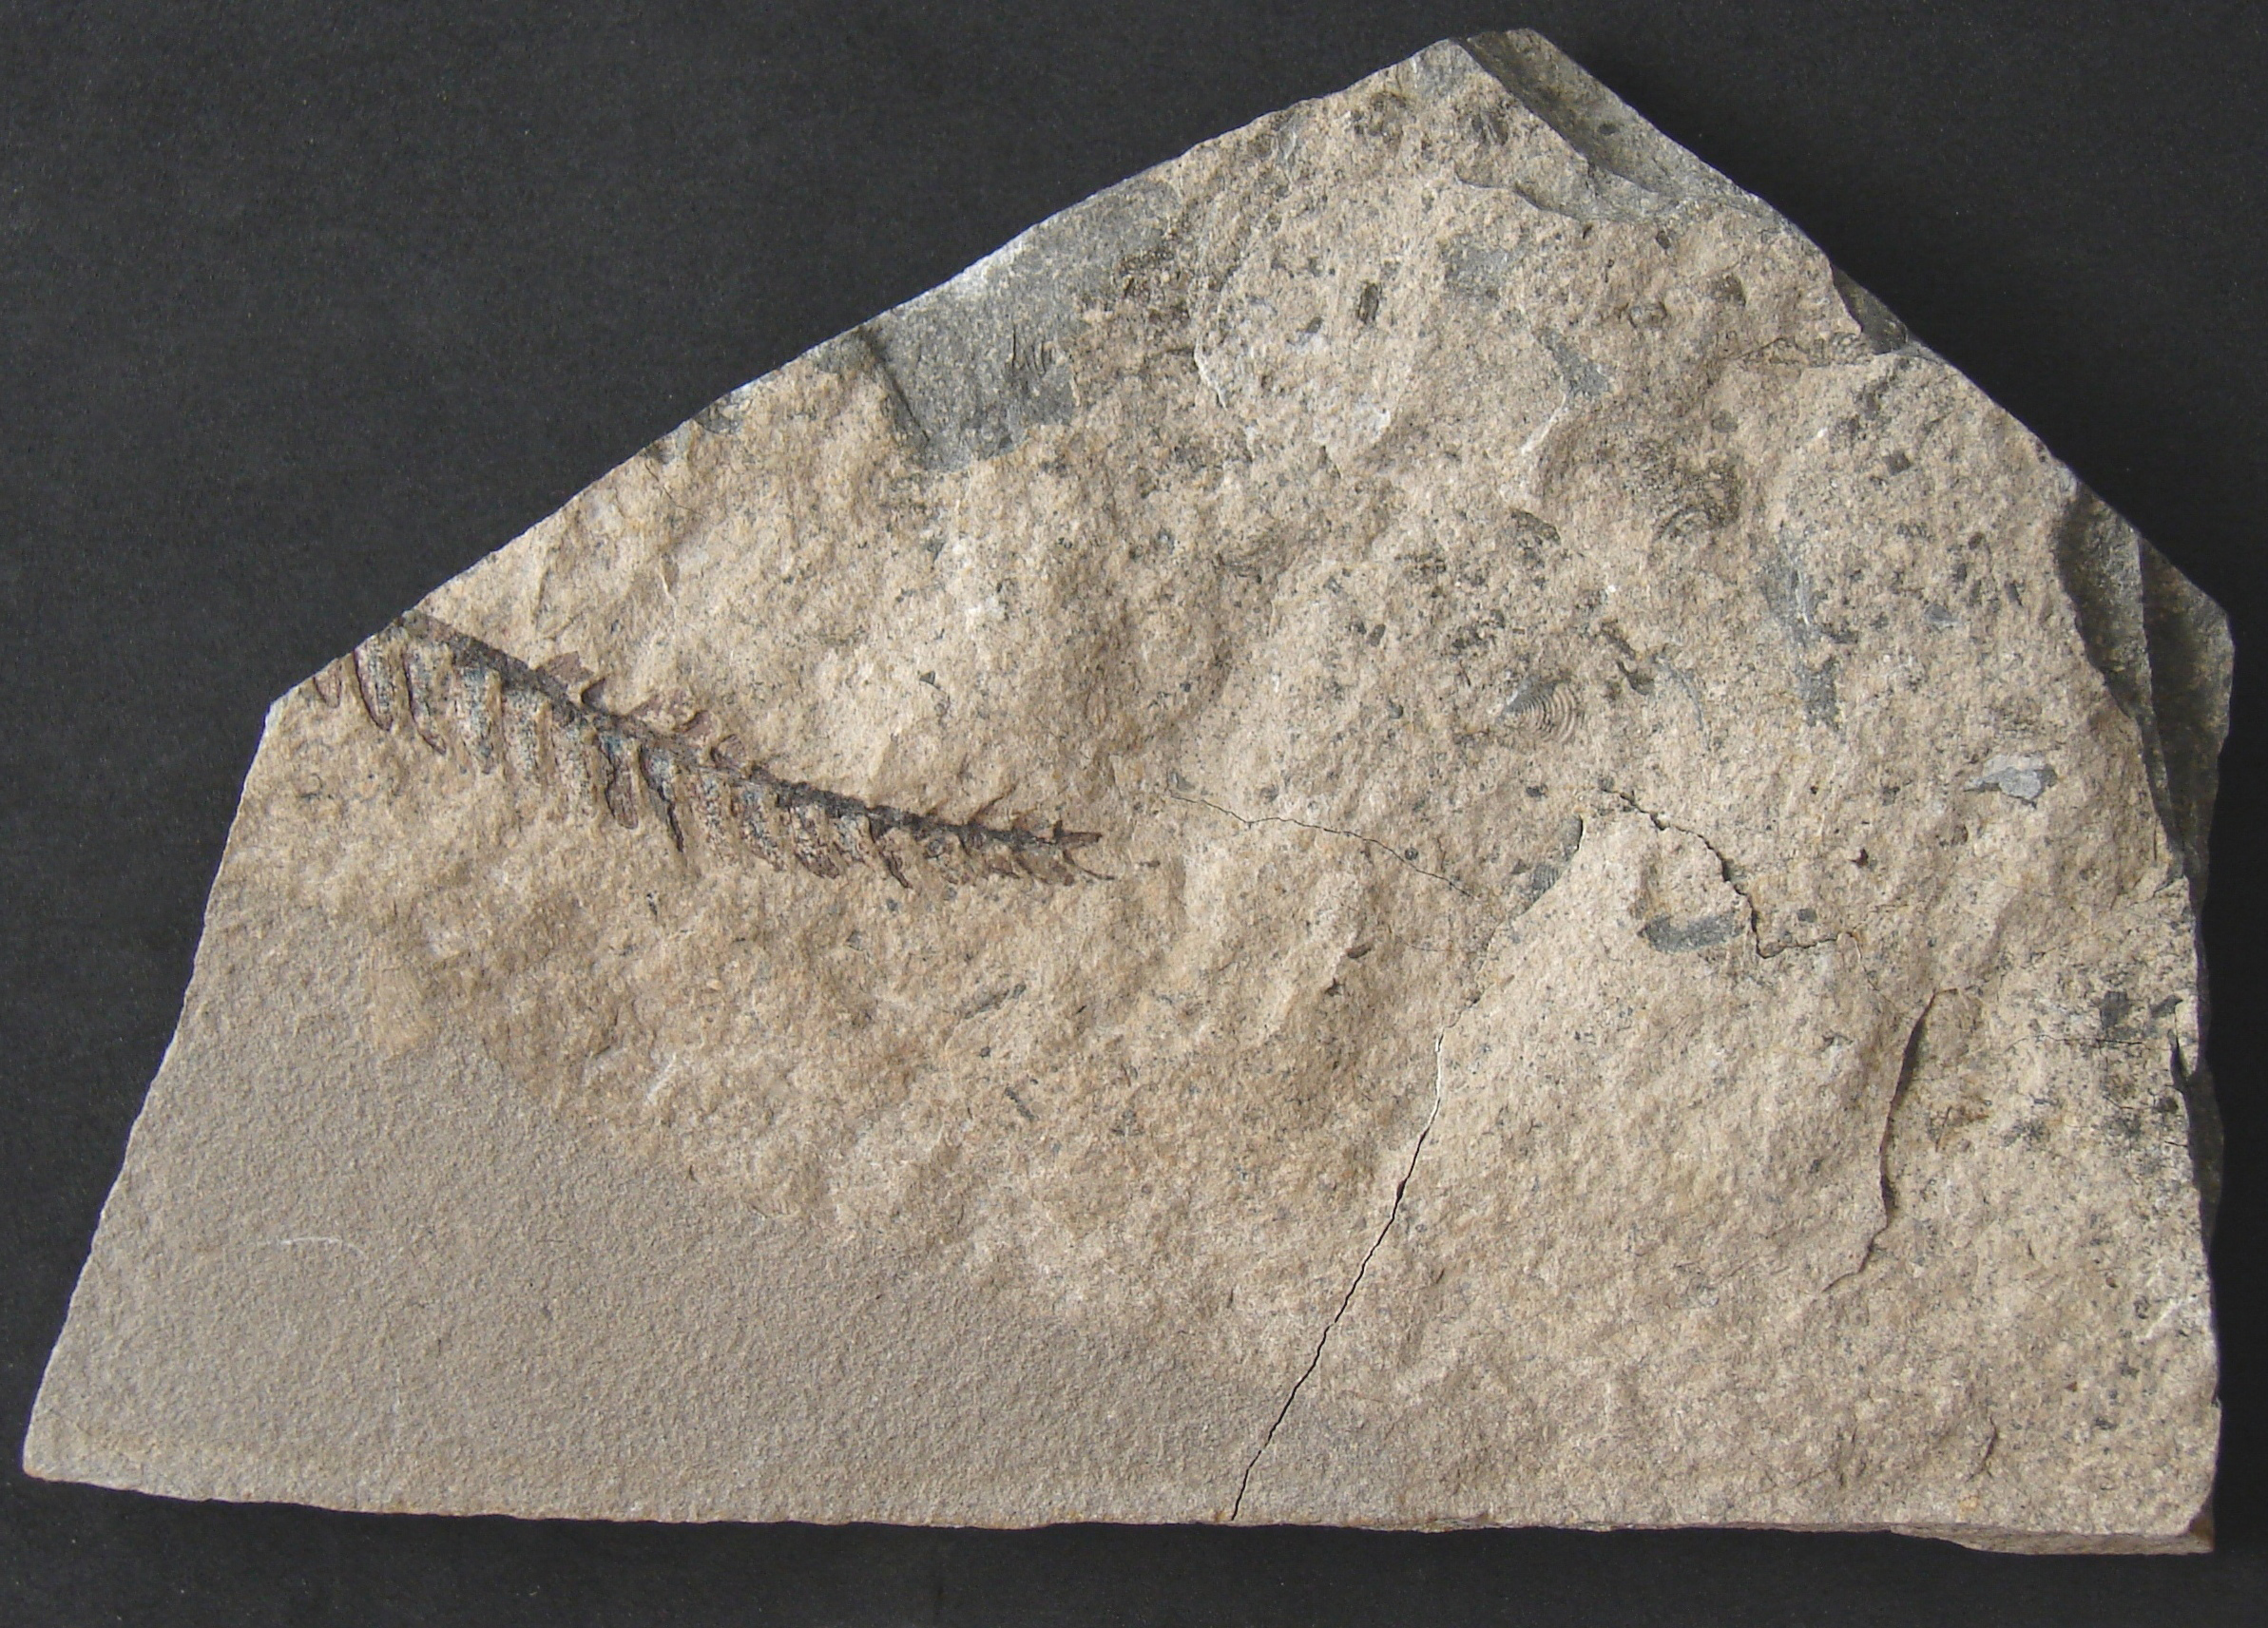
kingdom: Plantae
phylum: Tracheophyta
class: Cycadopsida
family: Williamsoniaceae
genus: Otozamites
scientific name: Otozamites
